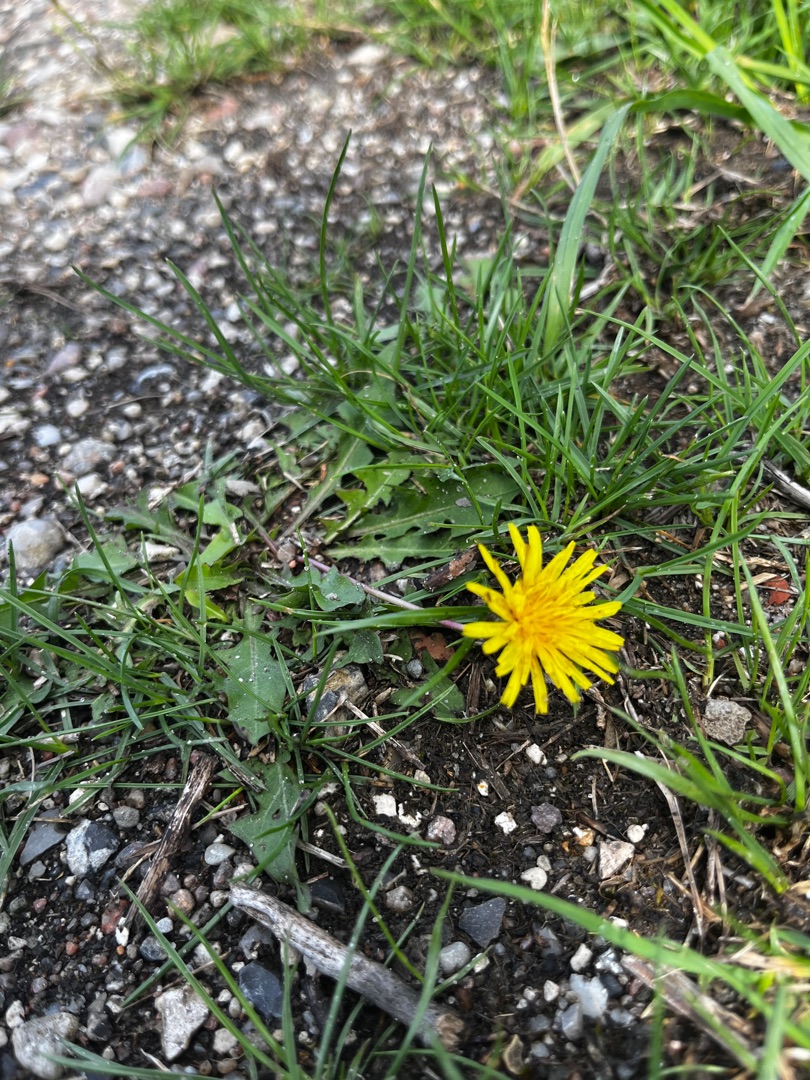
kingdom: Plantae
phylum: Tracheophyta
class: Magnoliopsida
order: Asterales
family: Asteraceae
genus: Taraxacum
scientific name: Taraxacum
